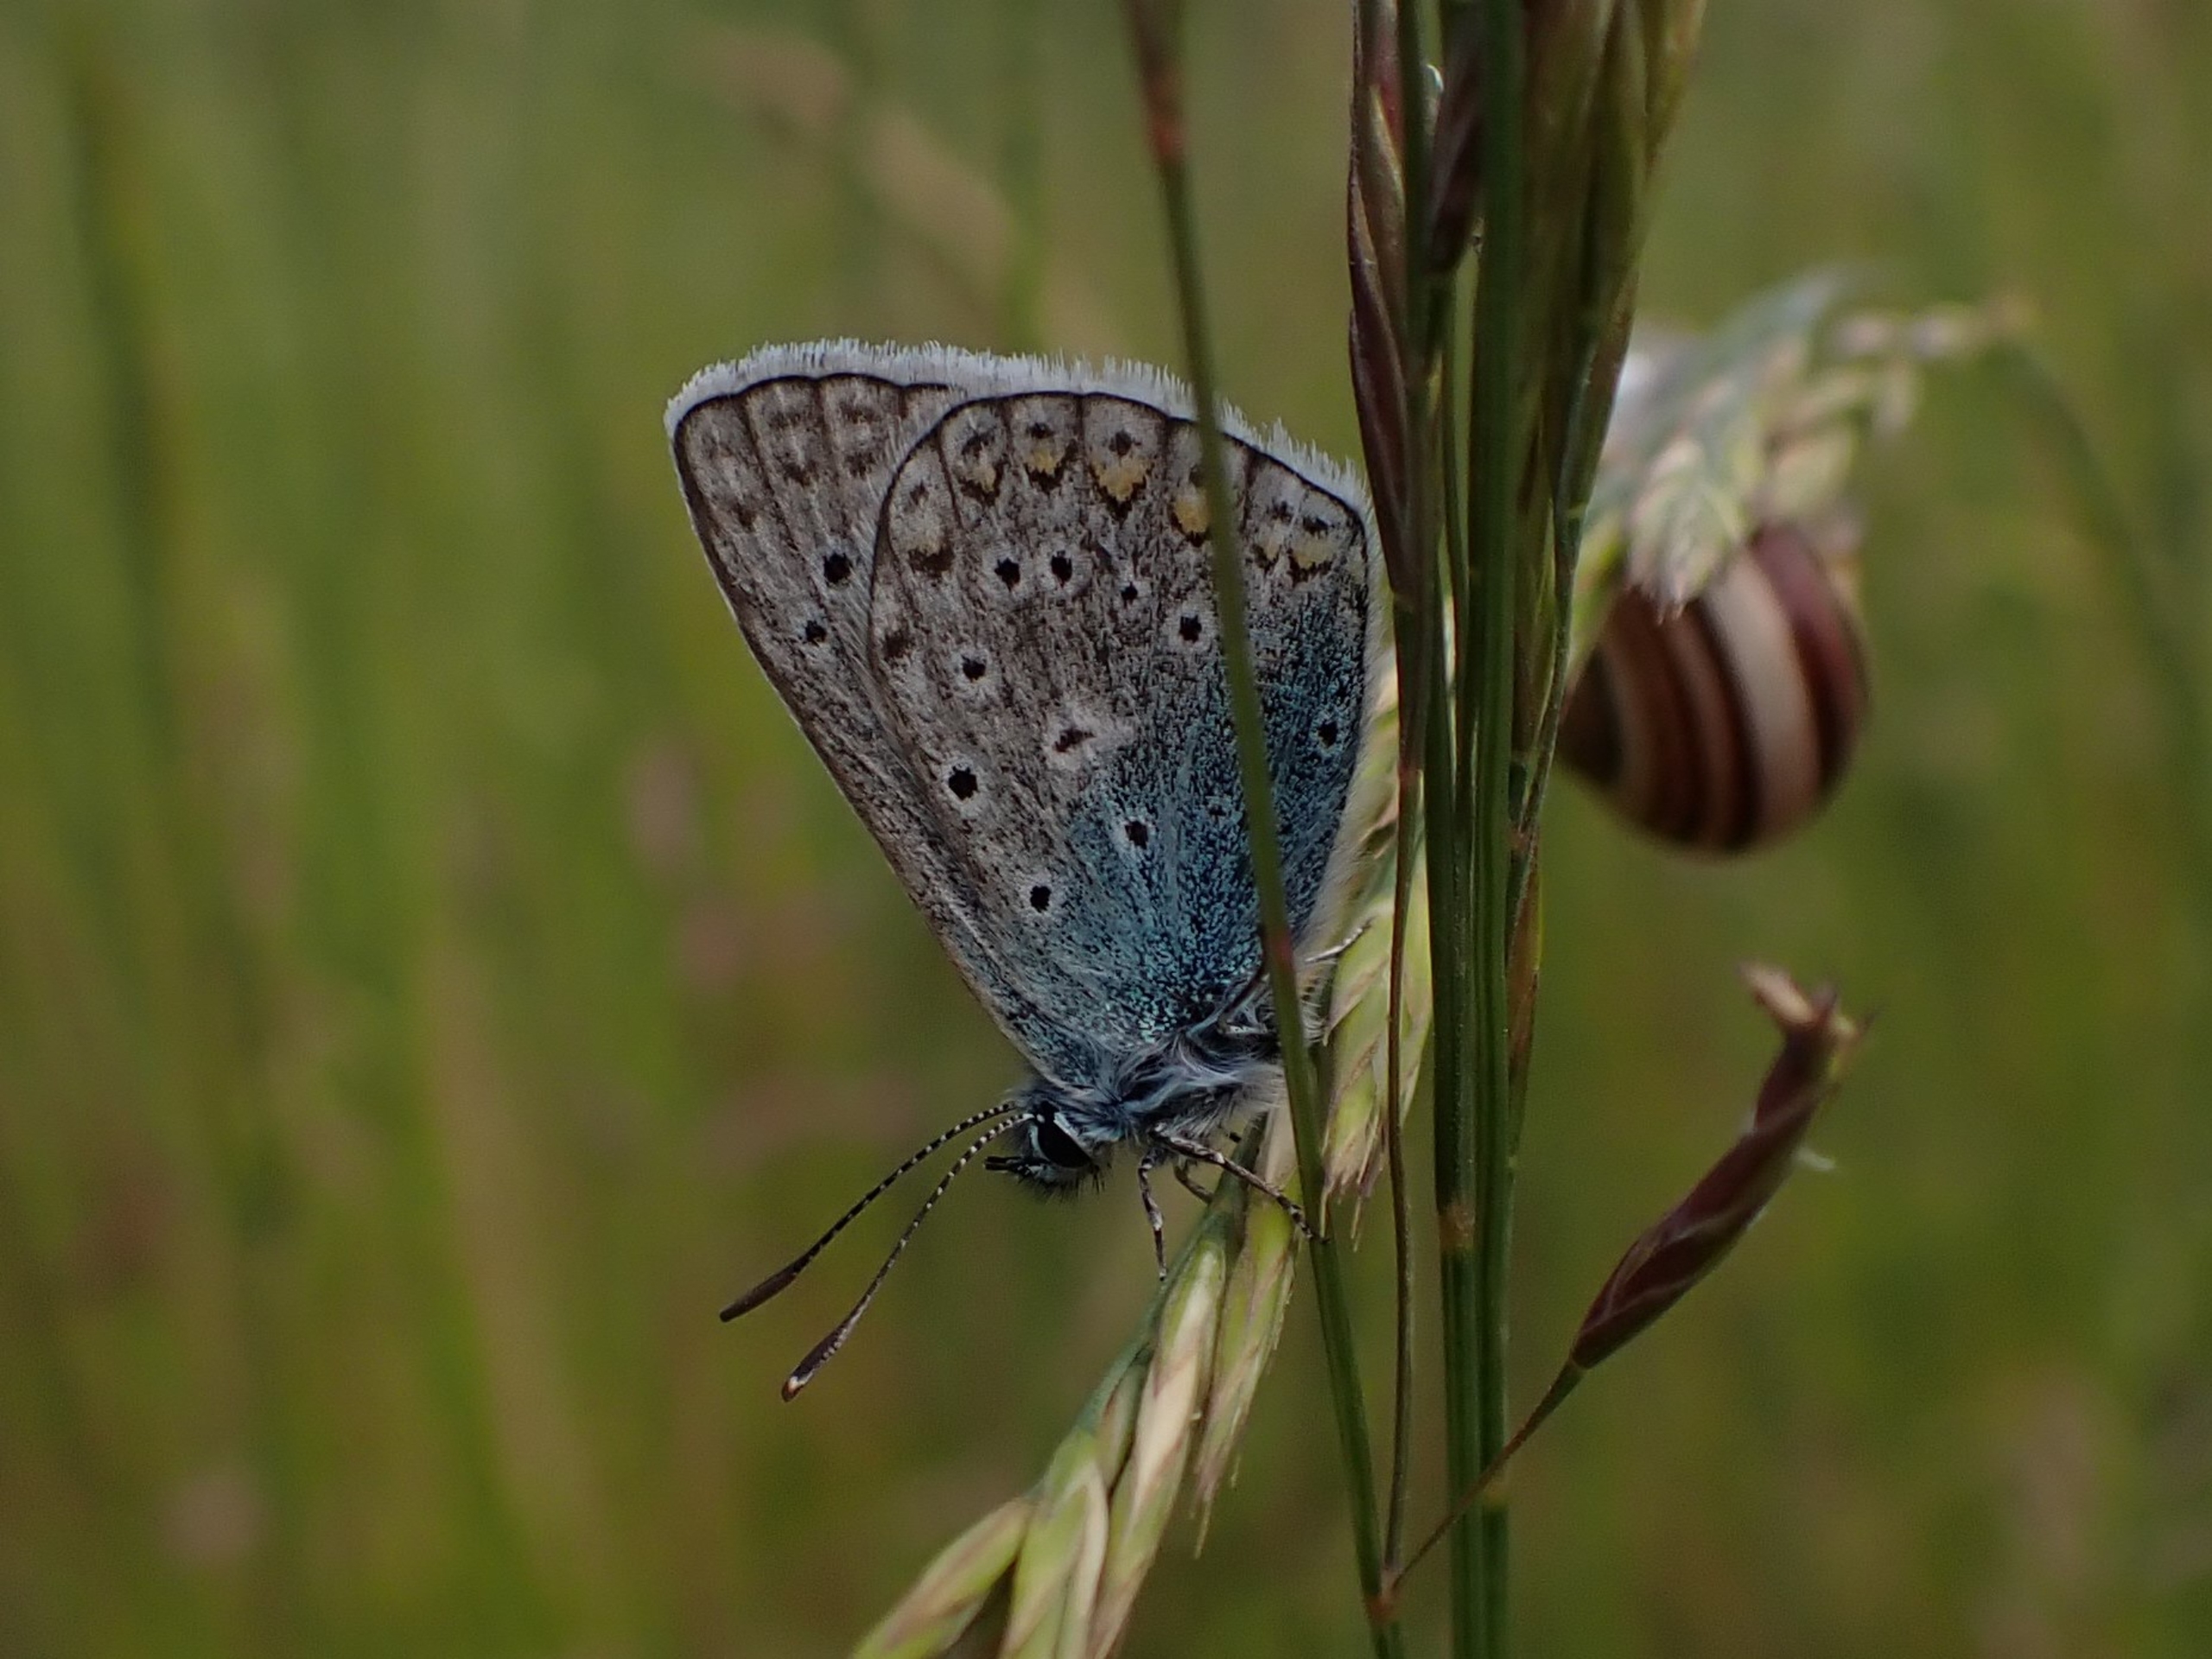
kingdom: Animalia
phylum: Arthropoda
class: Insecta
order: Lepidoptera
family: Lycaenidae
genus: Polyommatus
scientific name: Polyommatus icarus
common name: Almindelig blåfugl
